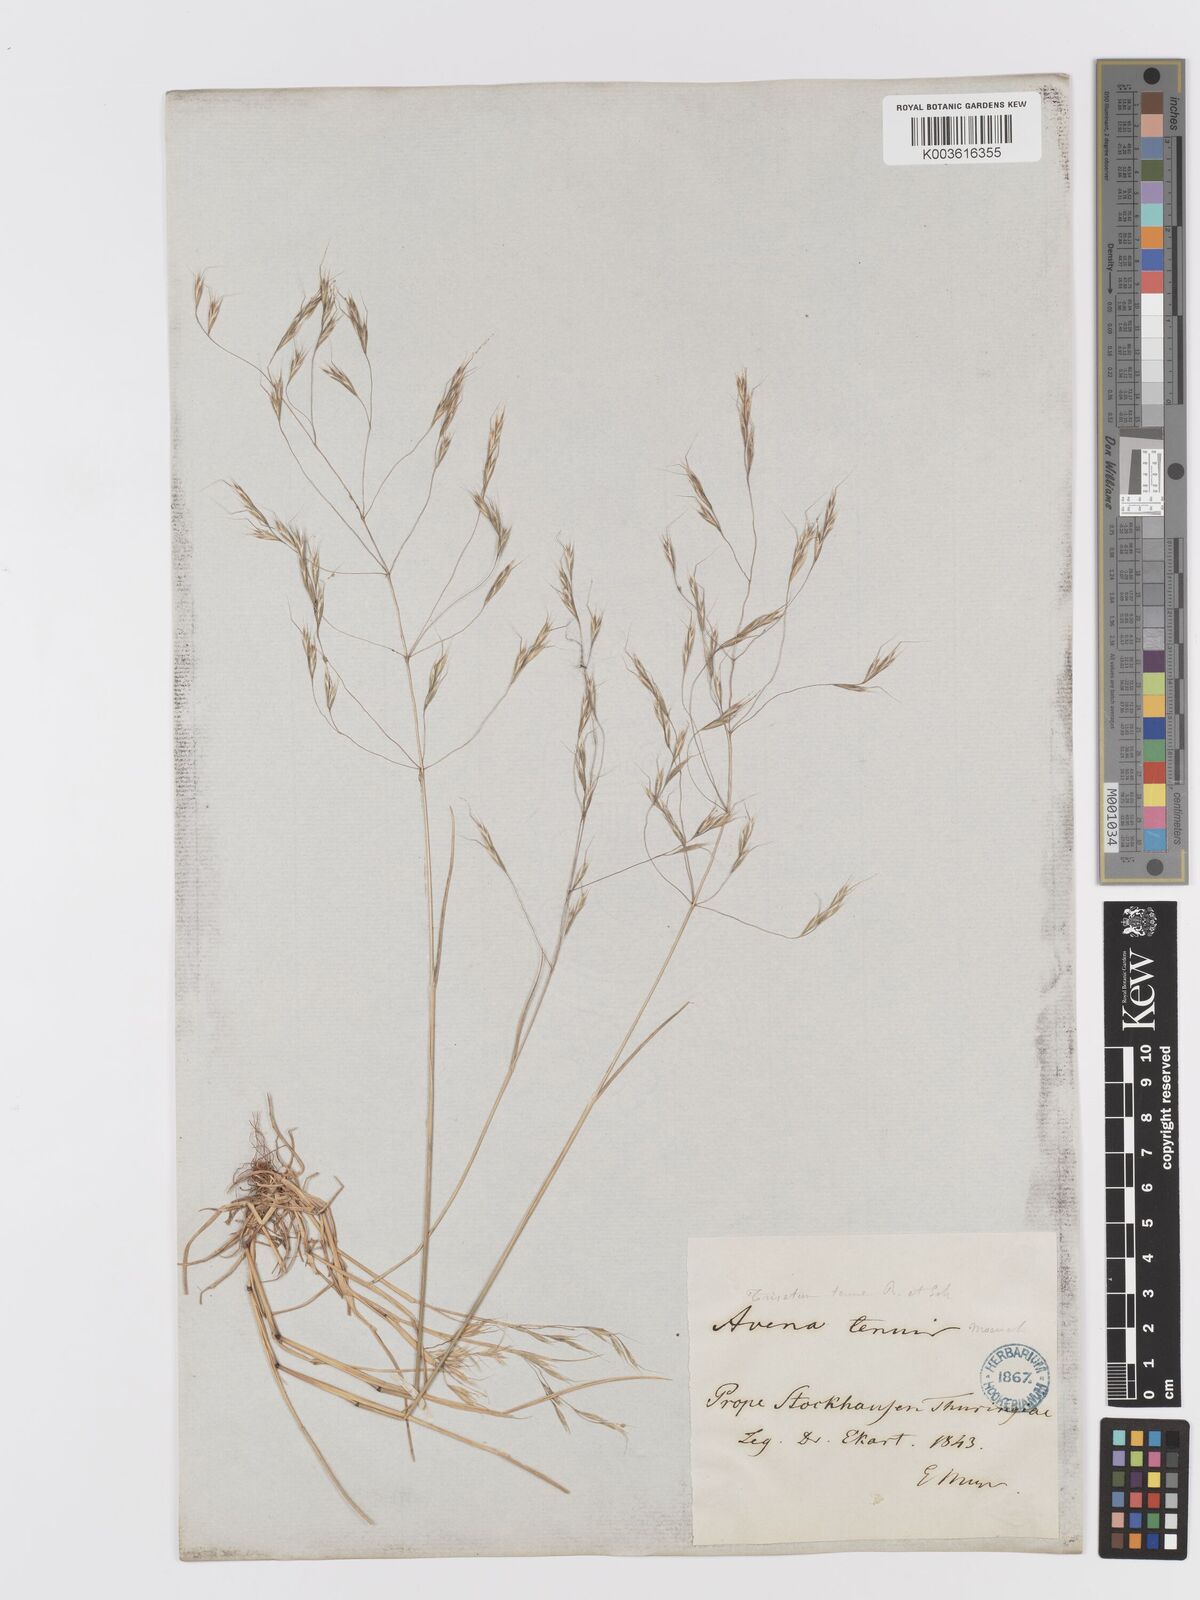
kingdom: Plantae
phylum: Tracheophyta
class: Liliopsida
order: Poales
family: Poaceae
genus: Ventenata
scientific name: Ventenata dubia
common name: North africa grass
